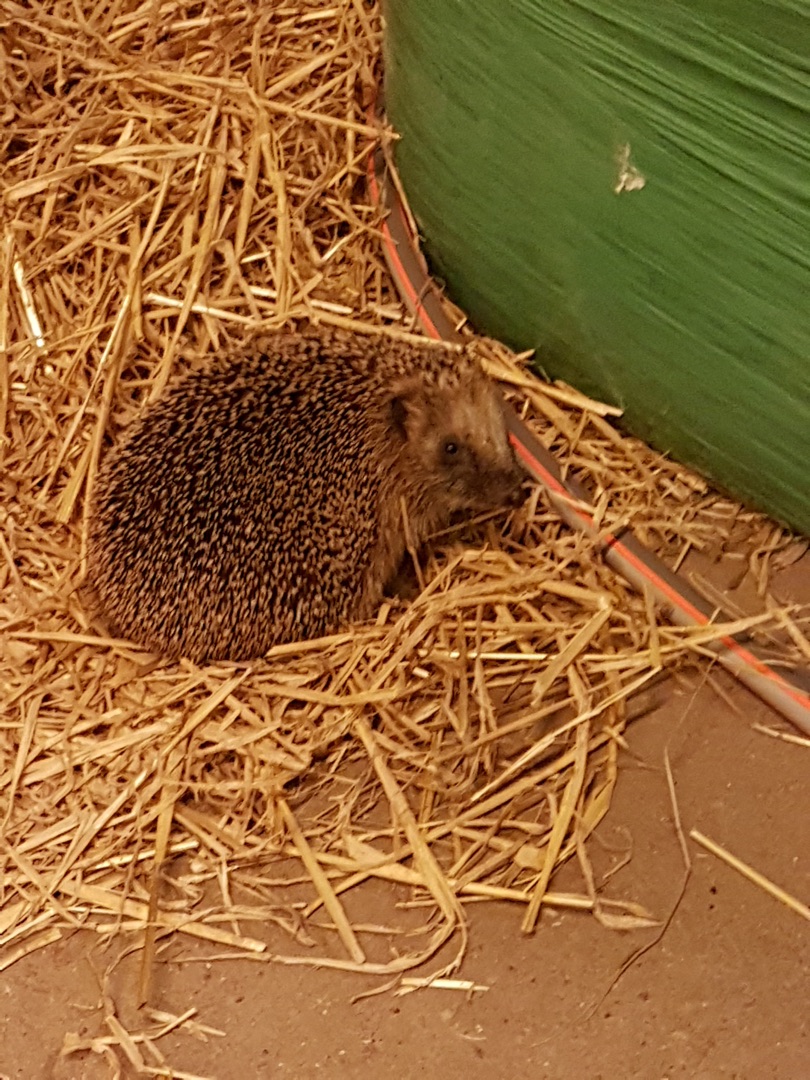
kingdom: Animalia
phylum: Chordata
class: Mammalia
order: Erinaceomorpha
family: Erinaceidae
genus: Erinaceus
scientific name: Erinaceus europaeus
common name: Pindsvin
